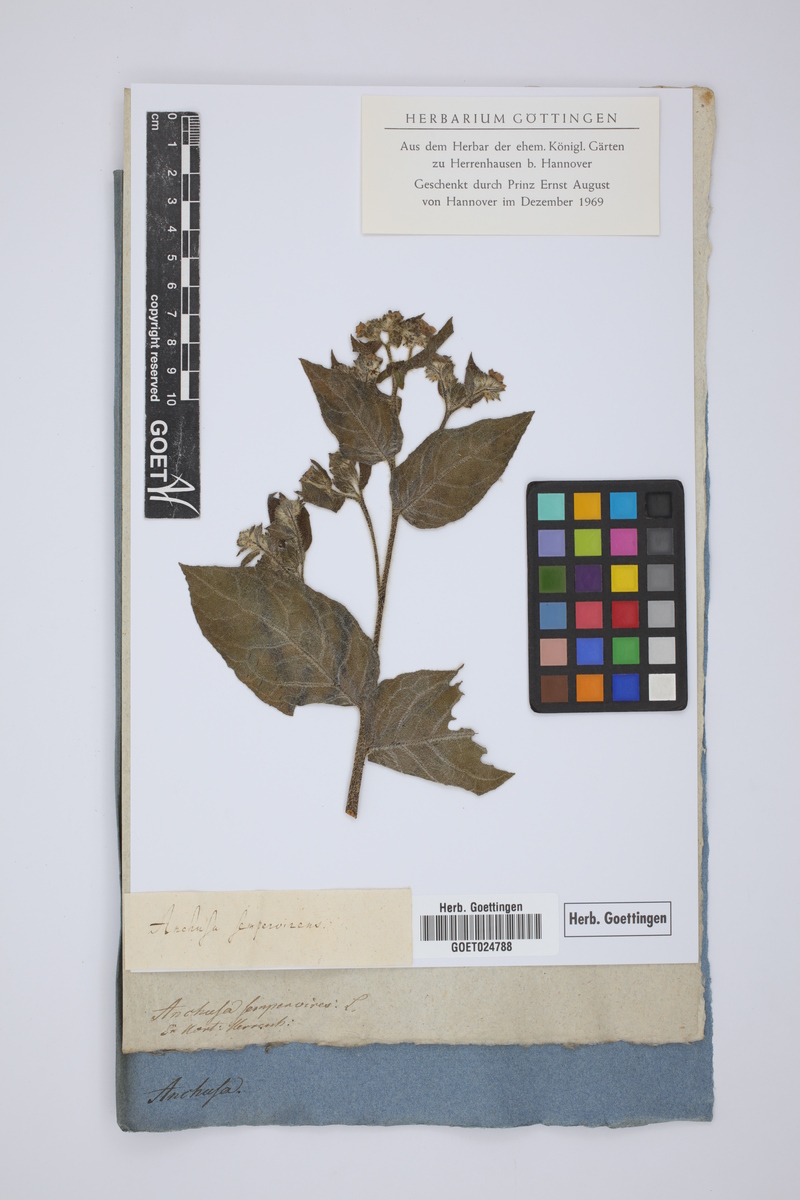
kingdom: Plantae
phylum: Tracheophyta
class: Magnoliopsida
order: Boraginales
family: Boraginaceae
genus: Pentaglottis
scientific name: Pentaglottis sempervirens
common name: Green alkanet
